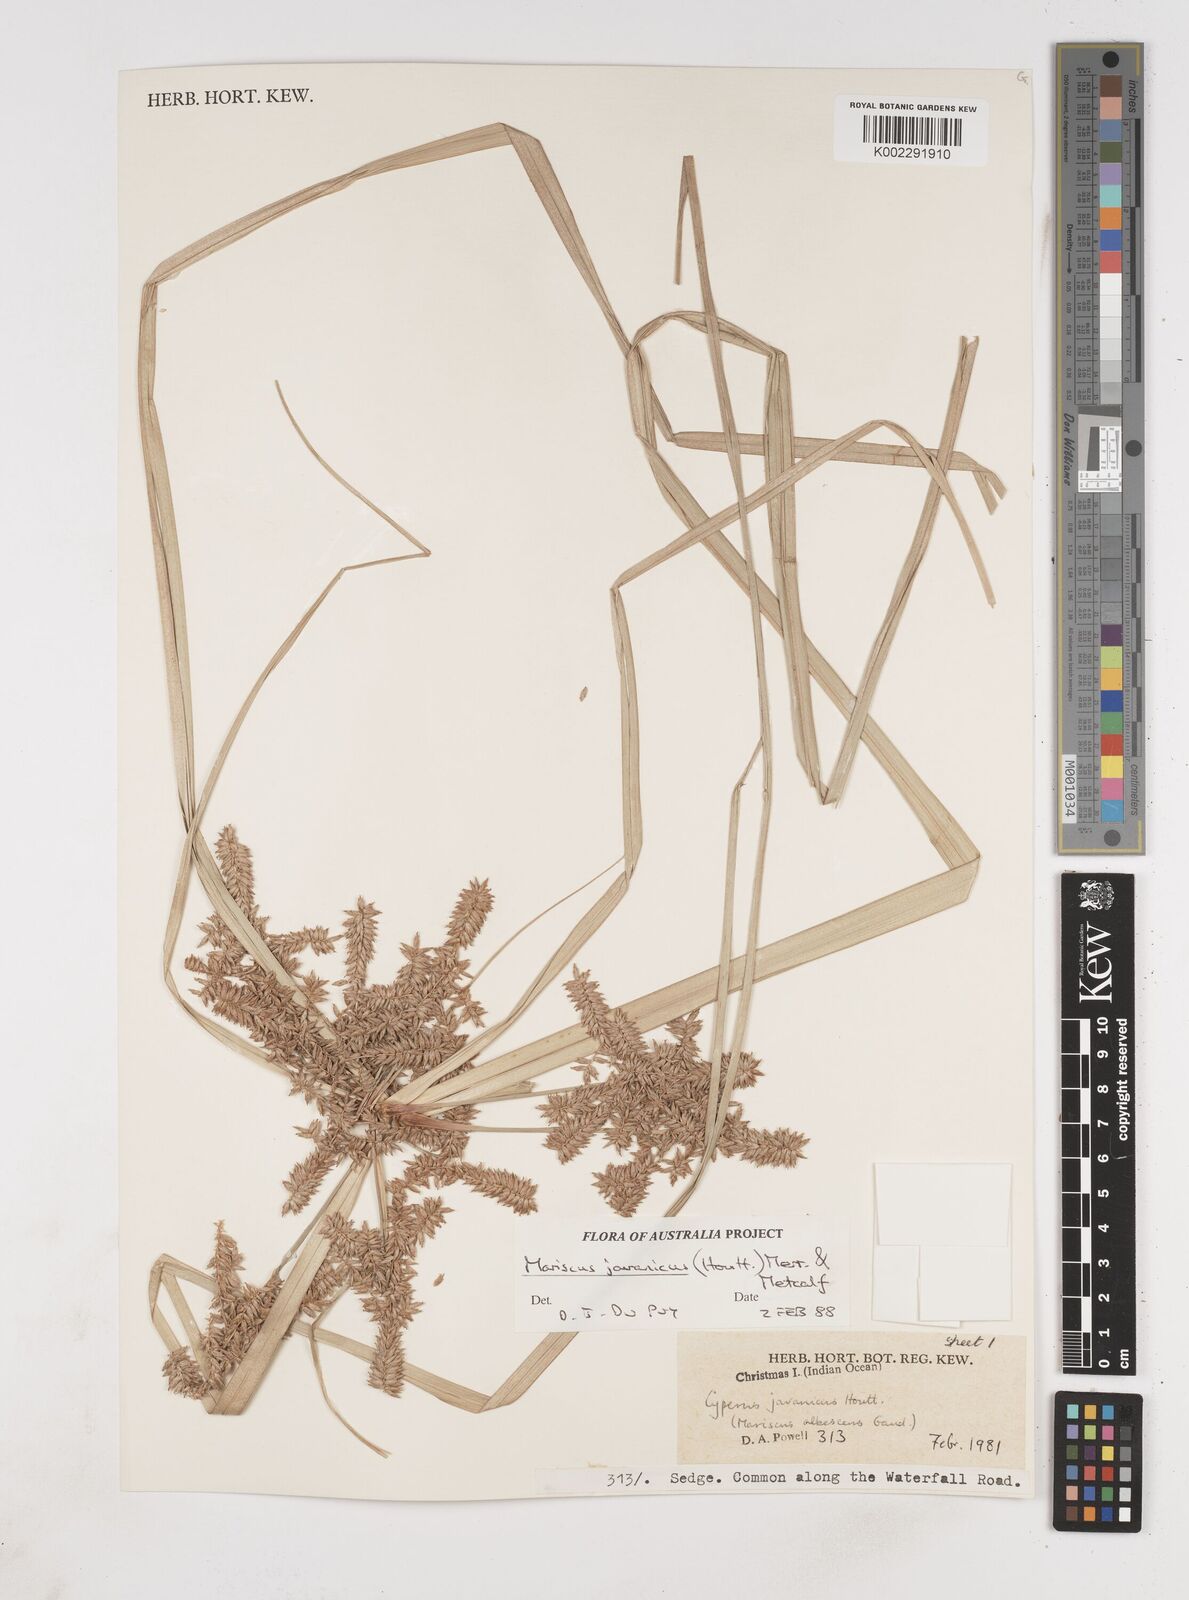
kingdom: Plantae
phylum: Tracheophyta
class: Liliopsida
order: Poales
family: Cyperaceae
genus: Cyperus
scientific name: Cyperus javanicus
